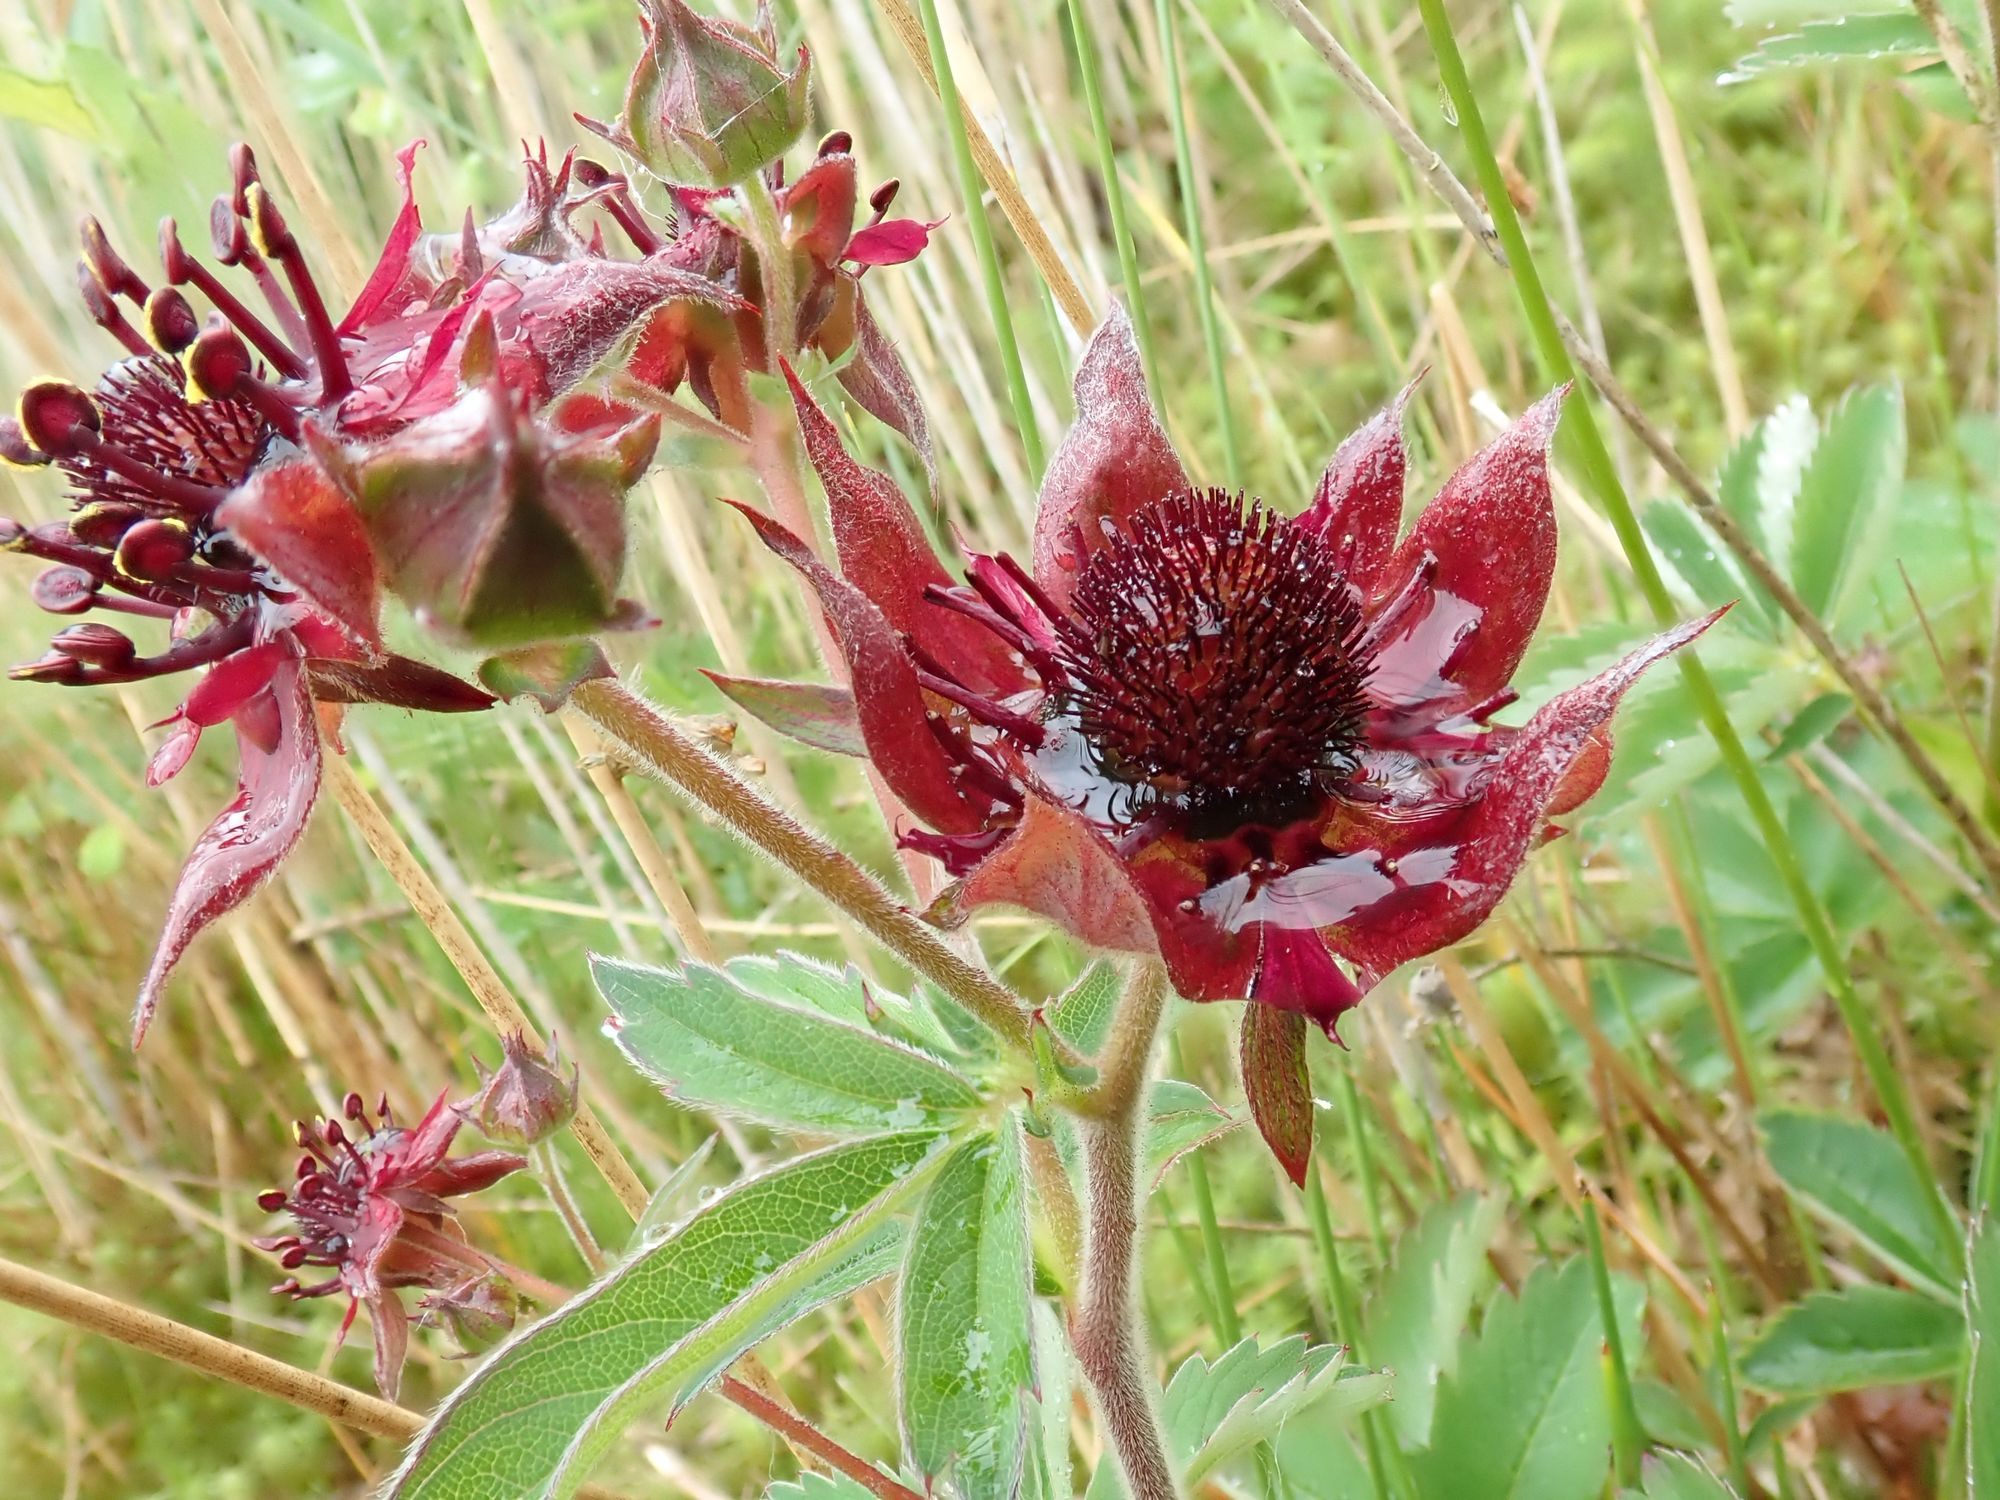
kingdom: Plantae
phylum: Tracheophyta
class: Magnoliopsida
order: Rosales
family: Rosaceae
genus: Comarum
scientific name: Comarum palustre
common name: Kragefod
